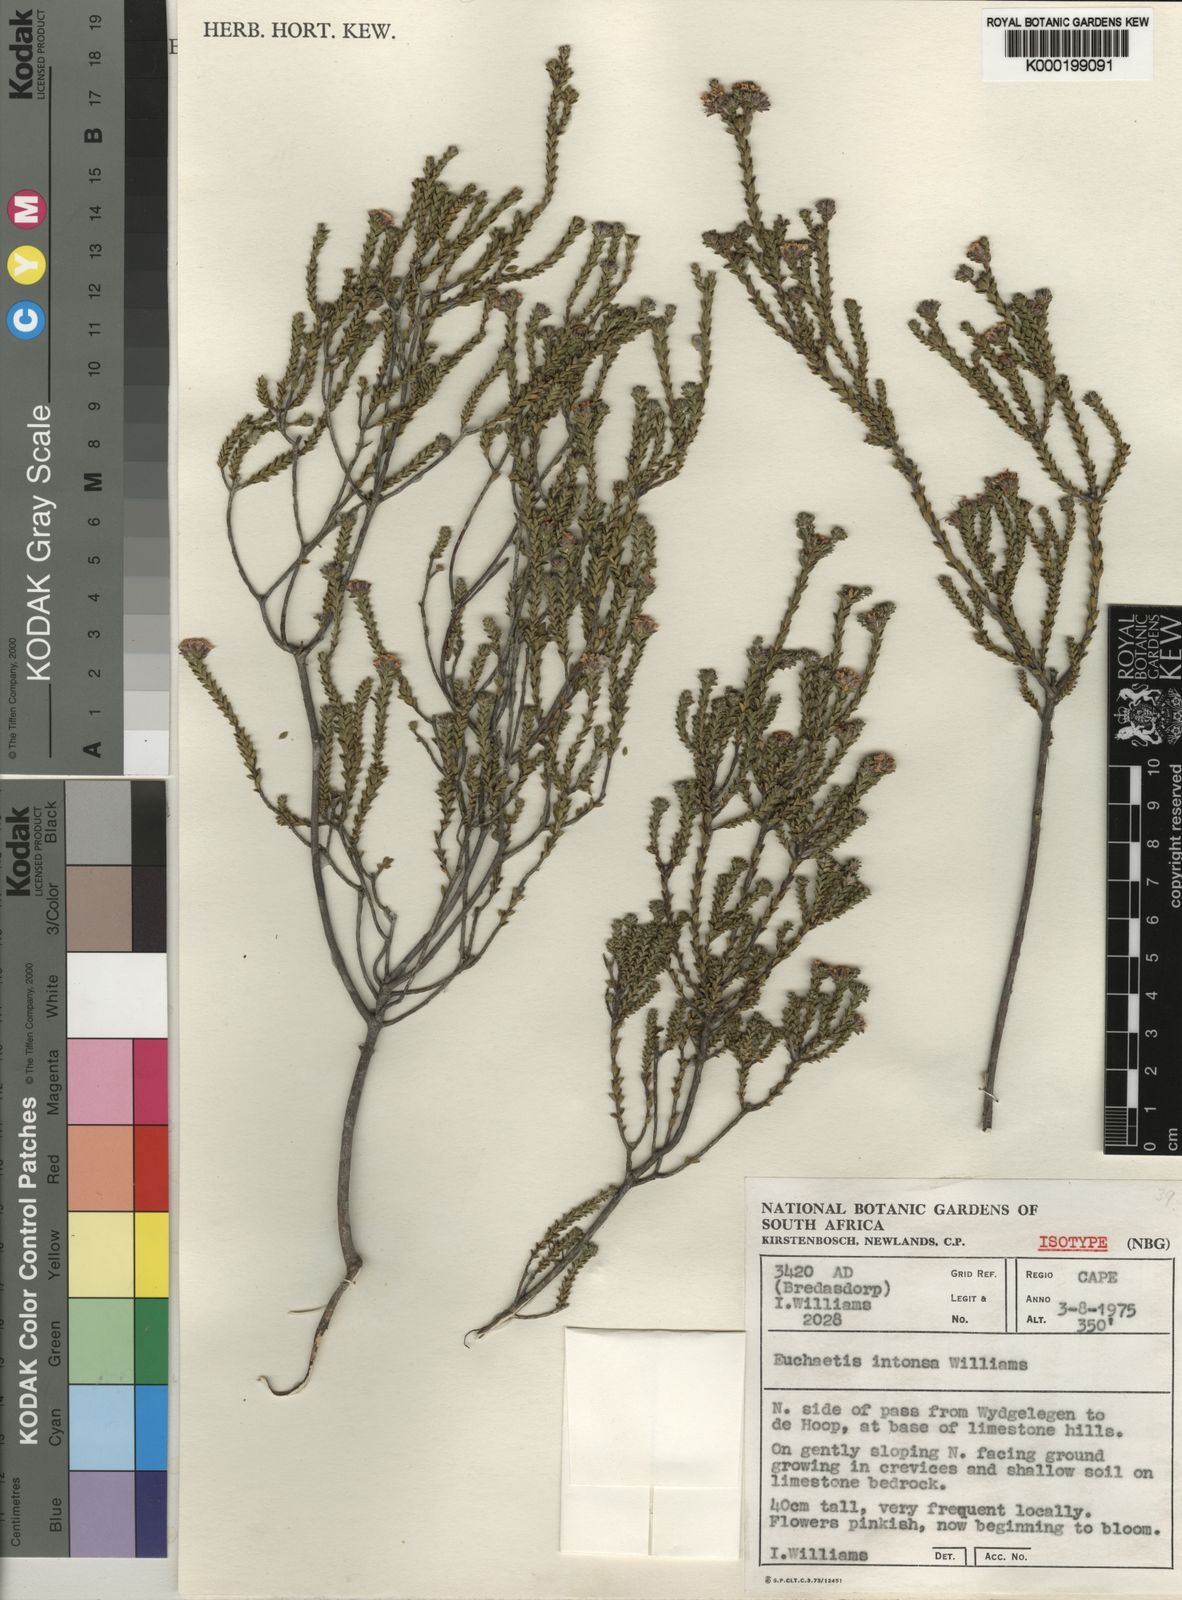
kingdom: Plantae
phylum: Tracheophyta
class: Magnoliopsida
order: Sapindales
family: Rutaceae
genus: Euchaetis
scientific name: Euchaetis intonsa
